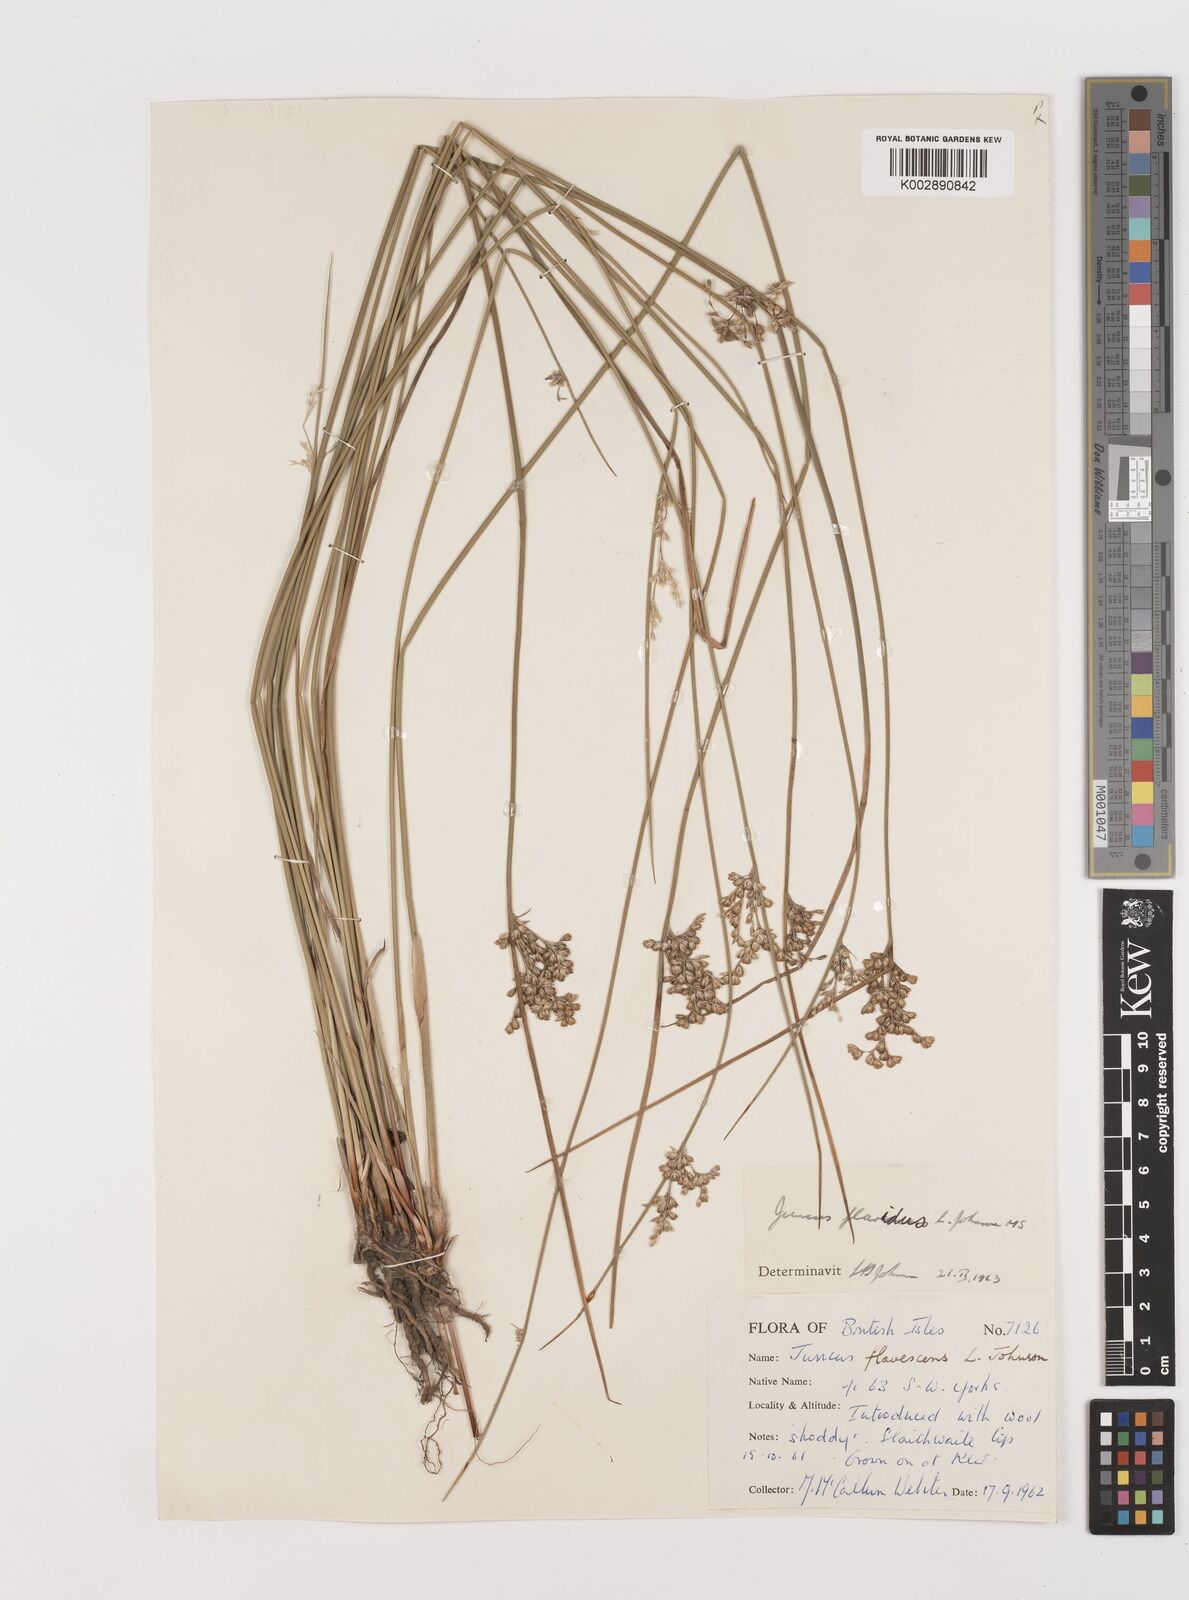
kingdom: Plantae
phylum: Tracheophyta
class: Liliopsida
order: Poales
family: Juncaceae
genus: Juncus
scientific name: Juncus flavidus
